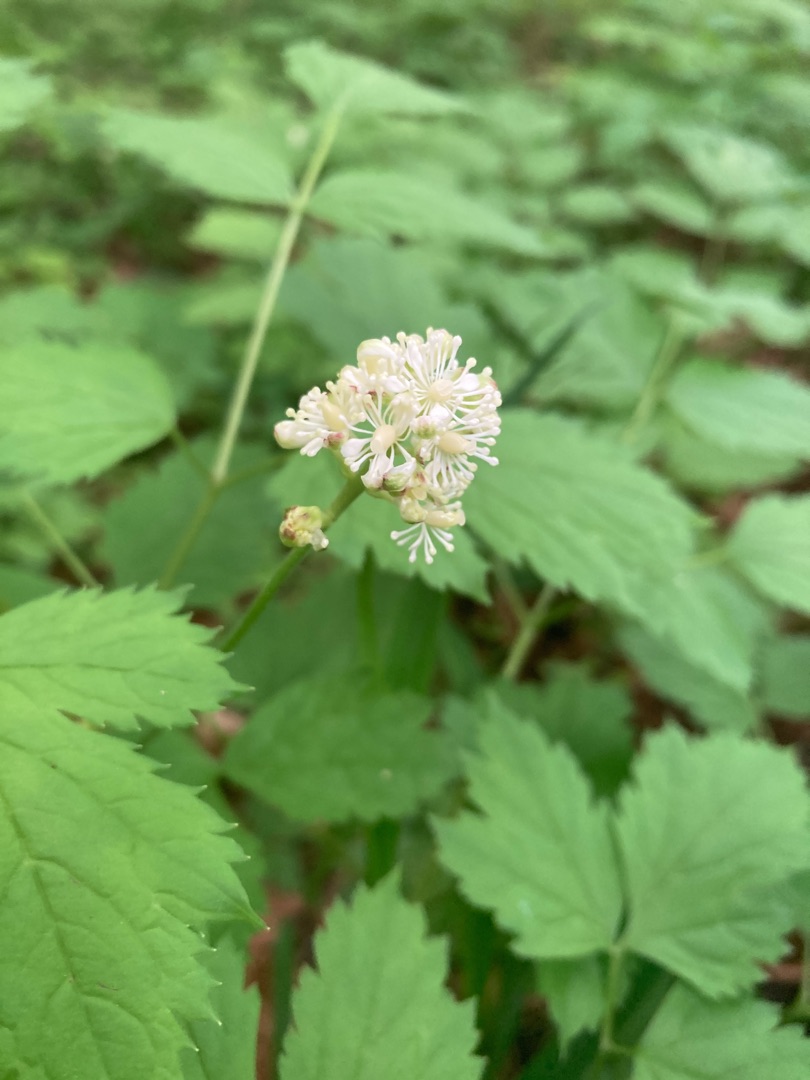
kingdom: Plantae
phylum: Tracheophyta
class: Magnoliopsida
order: Ranunculales
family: Ranunculaceae
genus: Actaea
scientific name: Actaea spicata
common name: Druemunke
